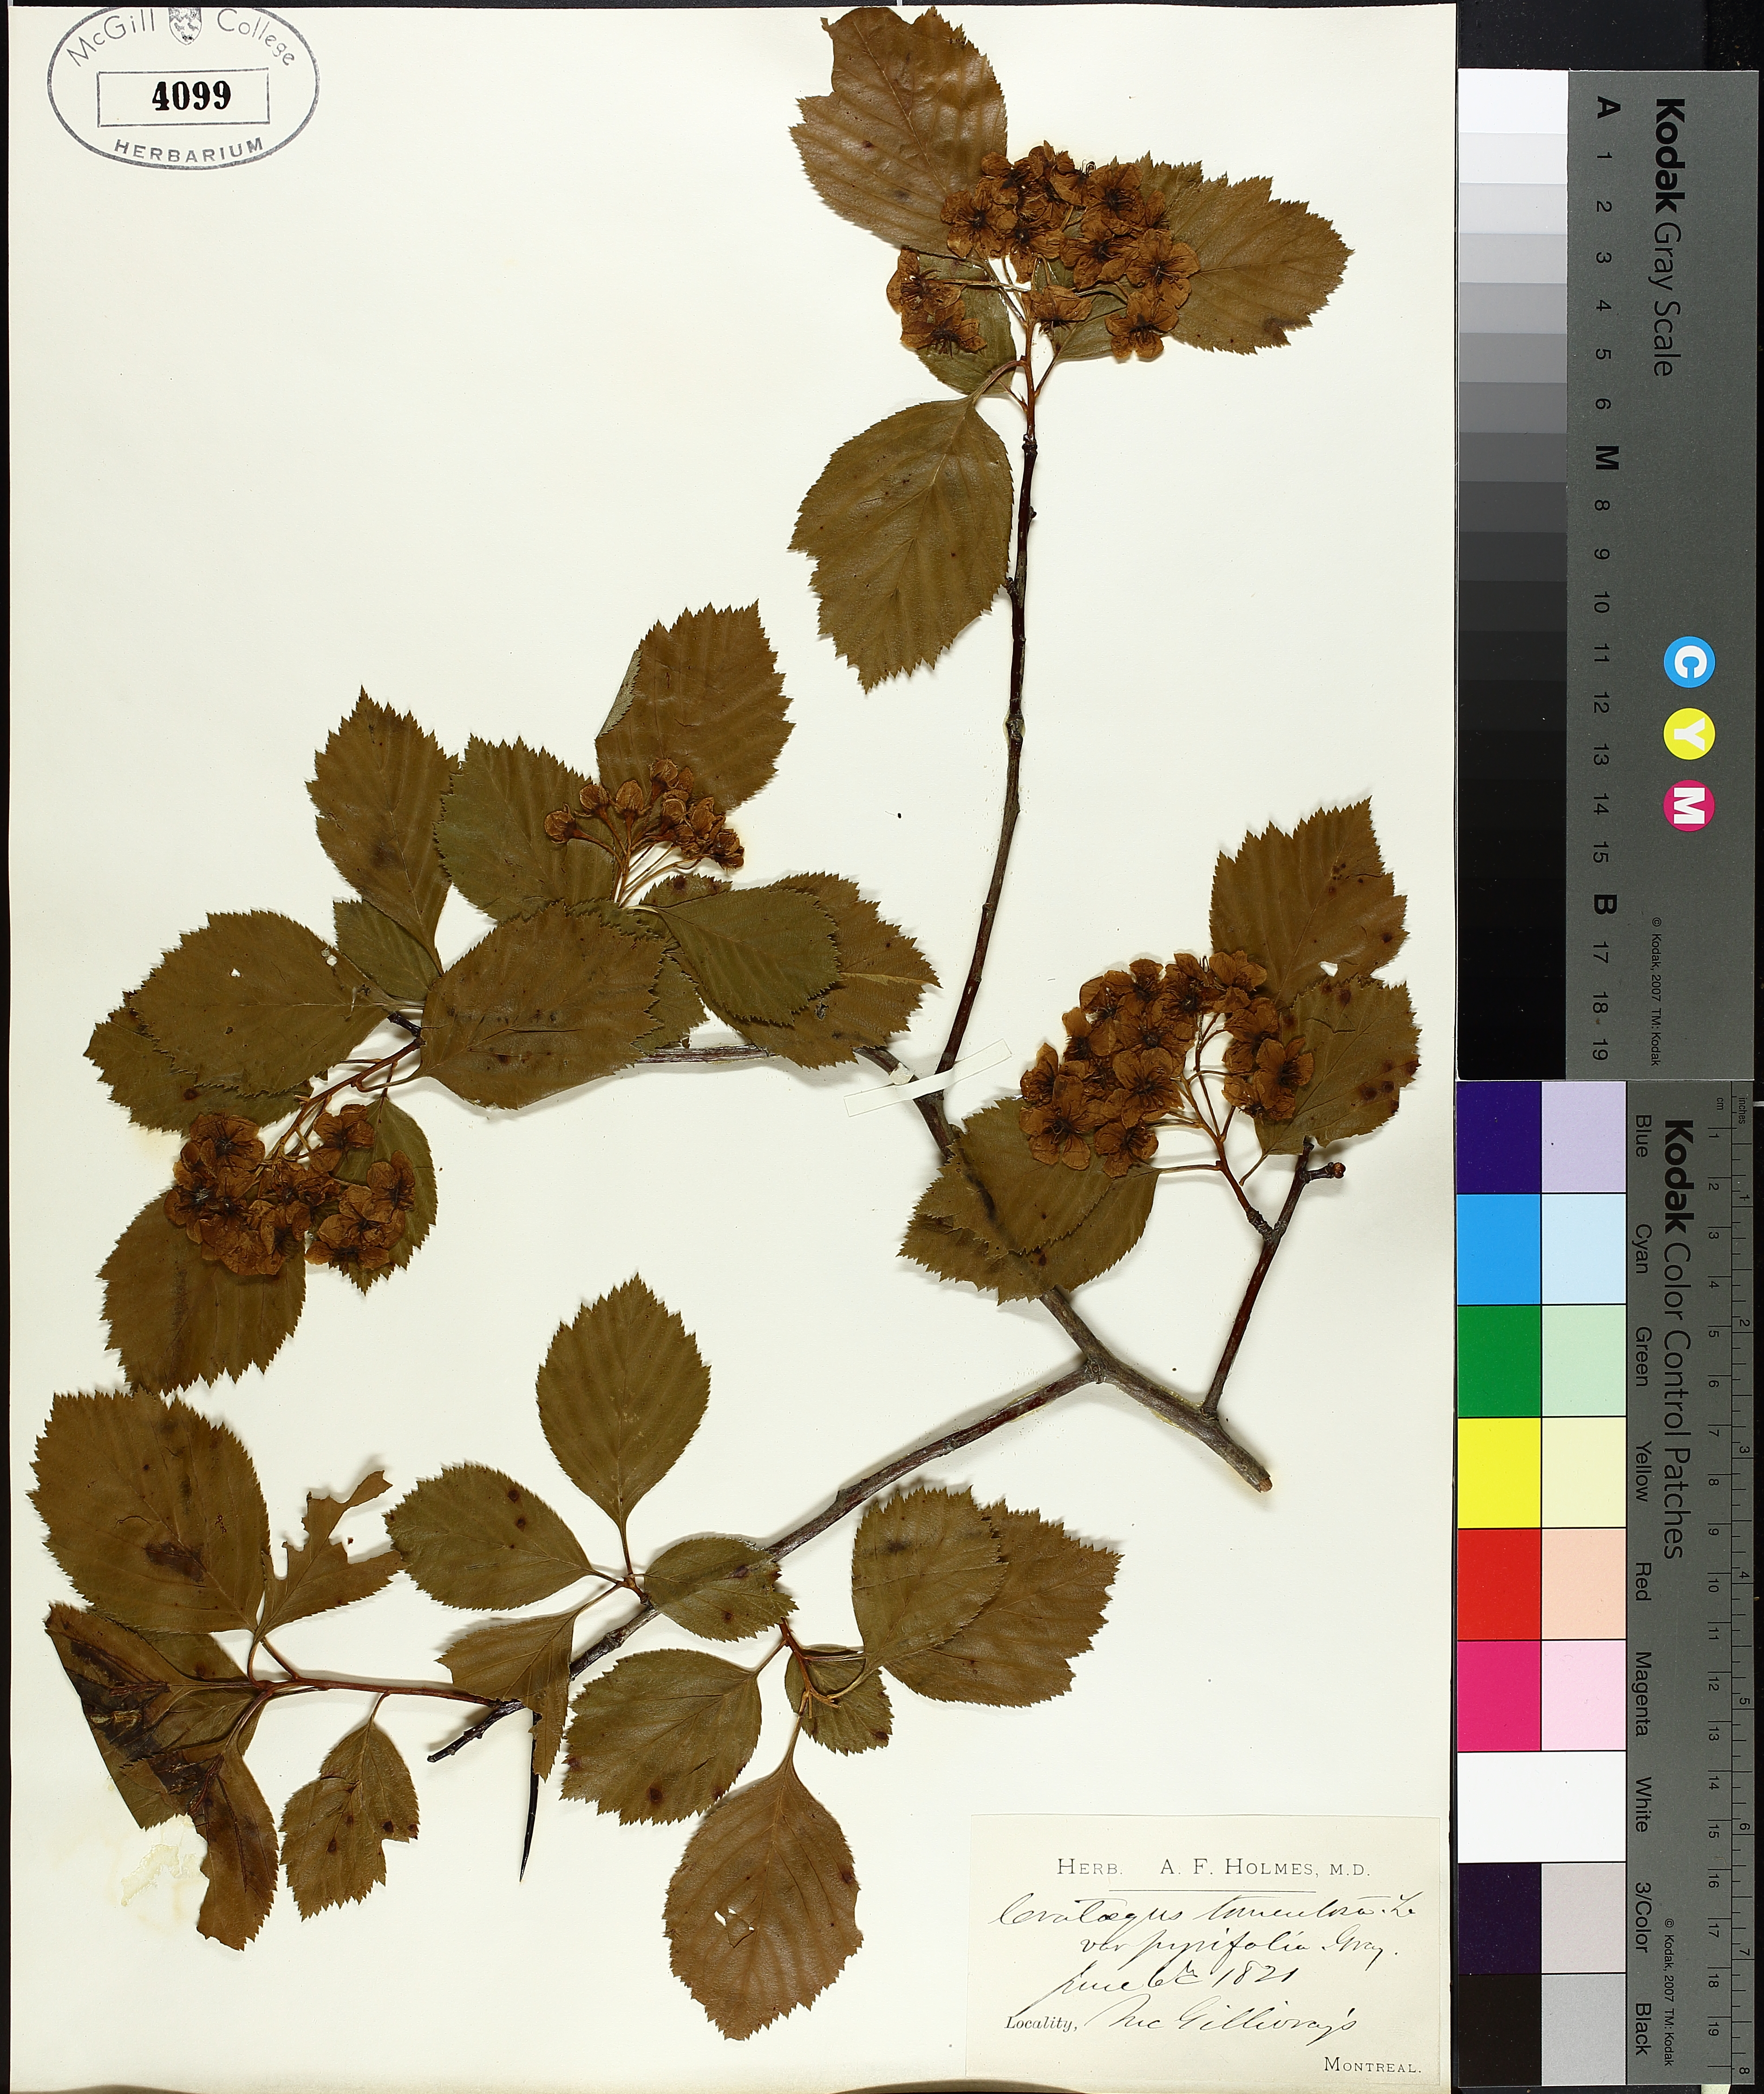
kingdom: Plantae
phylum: Tracheophyta
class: Magnoliopsida
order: Rosales
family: Rosaceae
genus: Crataegus
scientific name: Crataegus calpodendron
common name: Pear hawthorn
